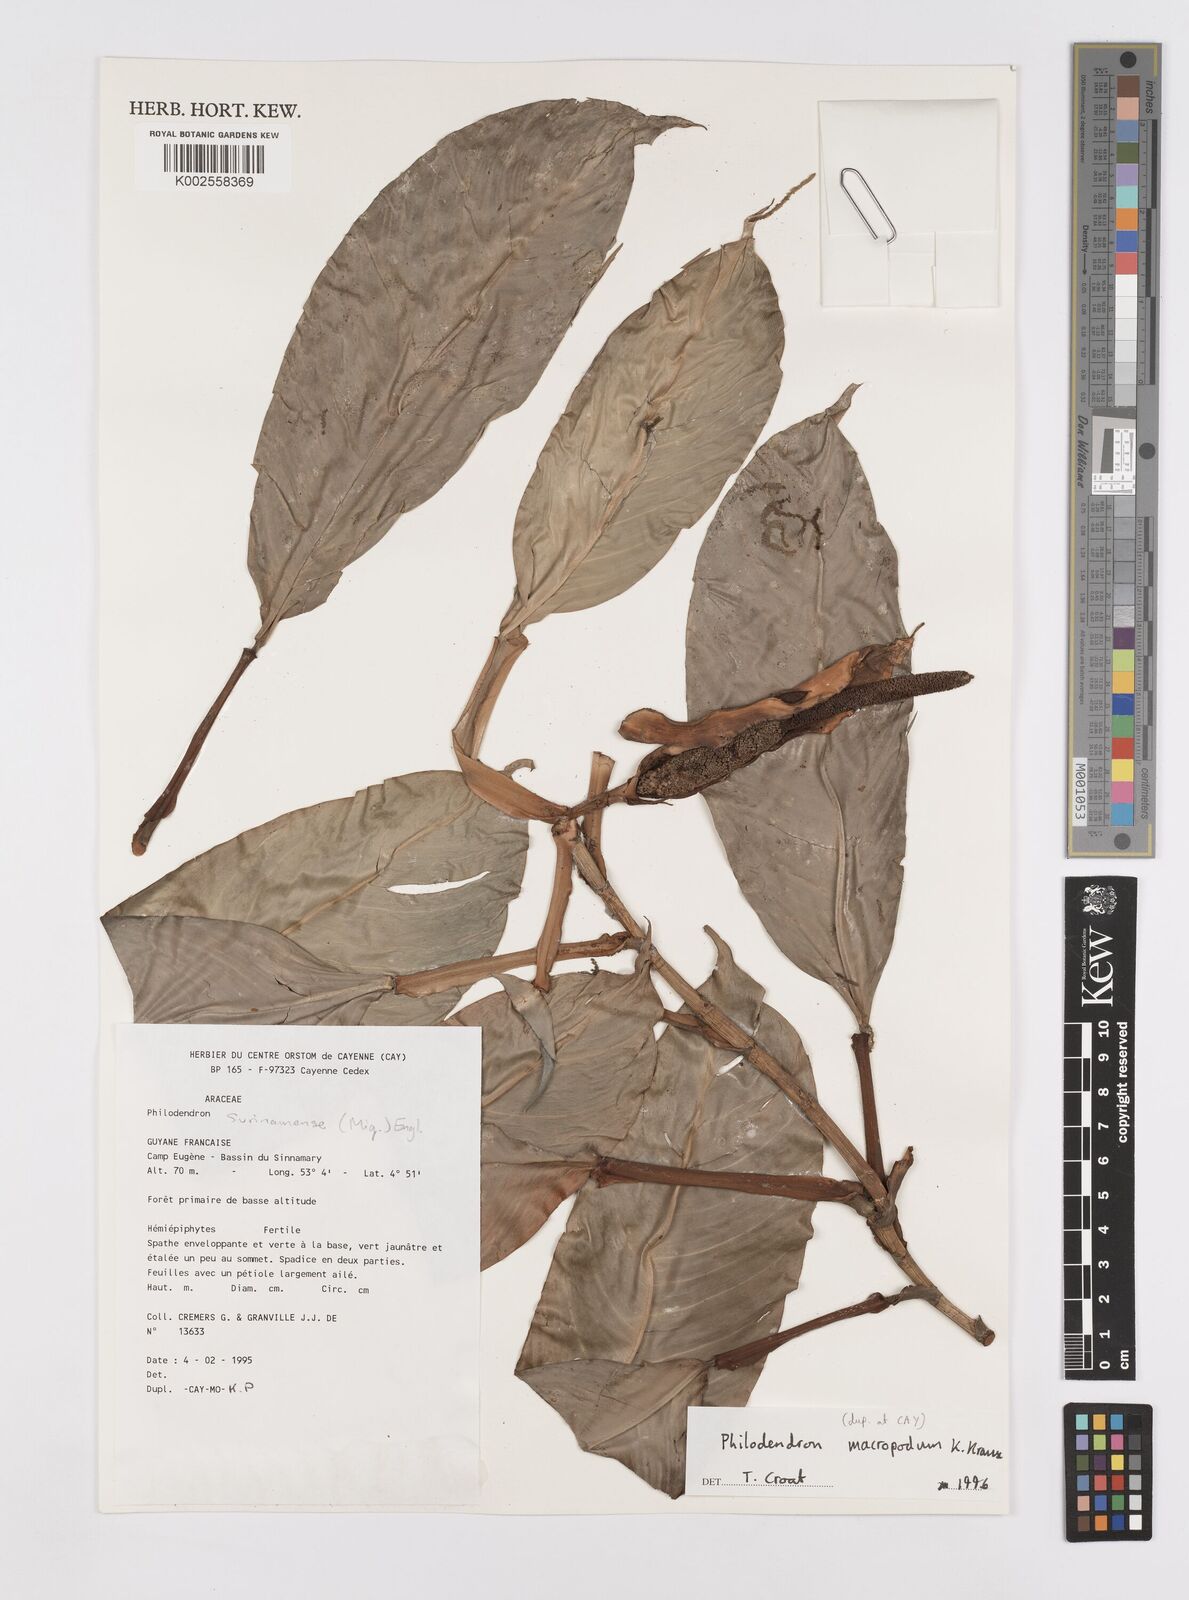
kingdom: Plantae
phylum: Tracheophyta
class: Liliopsida
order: Alismatales
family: Araceae
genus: Philodendron
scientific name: Philodendron macropodum
